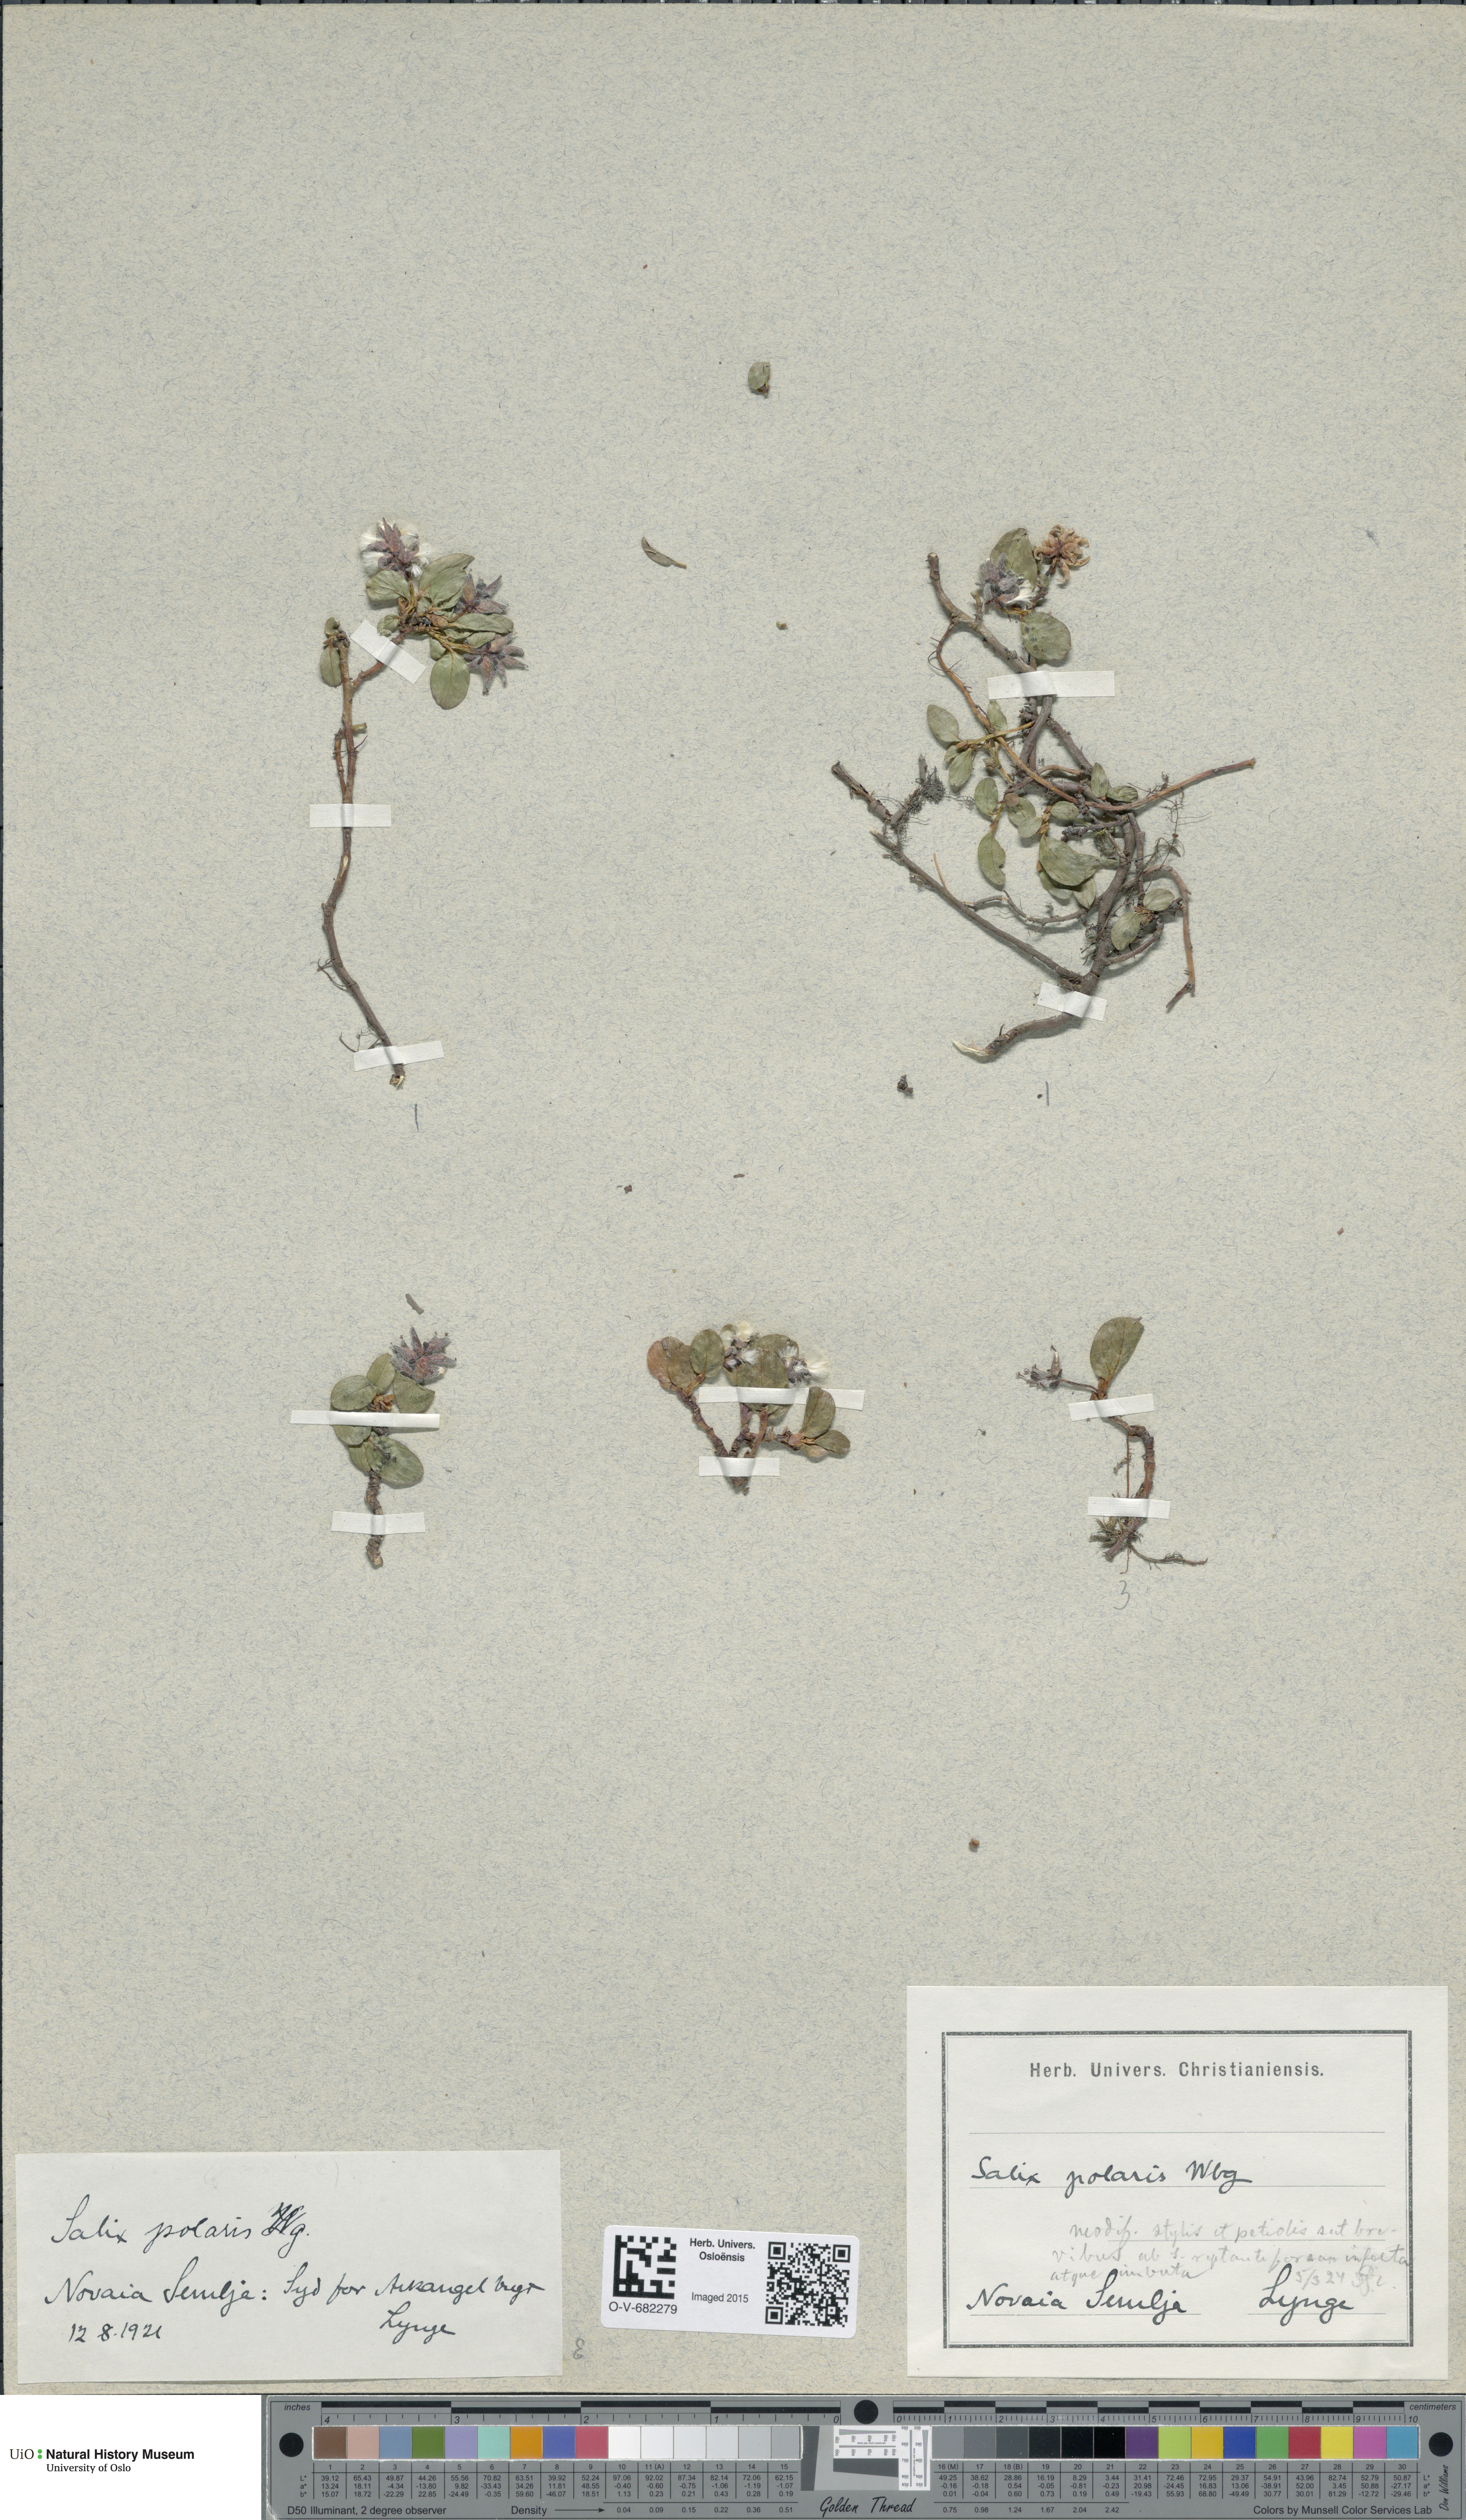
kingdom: Plantae
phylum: Tracheophyta
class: Magnoliopsida
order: Fabales
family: Fabaceae
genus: Trifolium
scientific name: Trifolium aureum
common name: Golden clover
